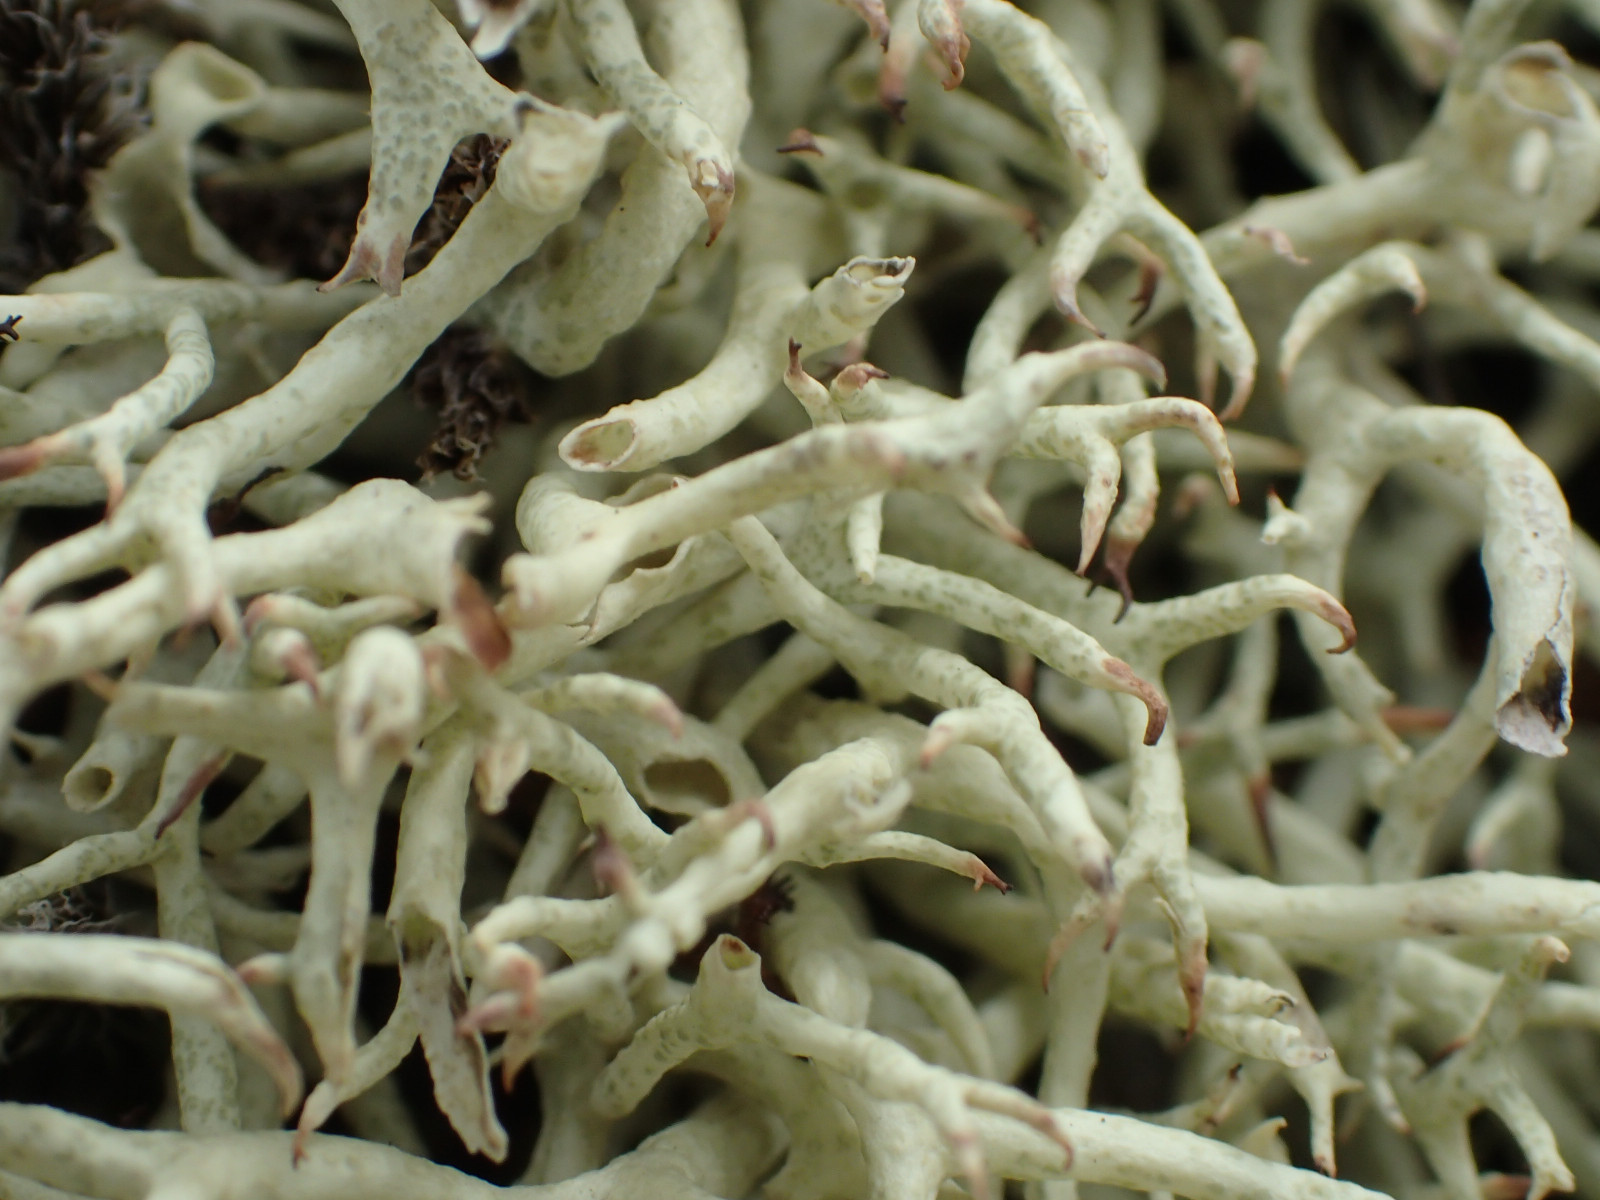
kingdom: Fungi
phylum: Ascomycota
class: Lecanoromycetes
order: Lecanorales
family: Cladoniaceae
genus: Cladonia
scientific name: Cladonia uncialis
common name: pigget bægerlav
